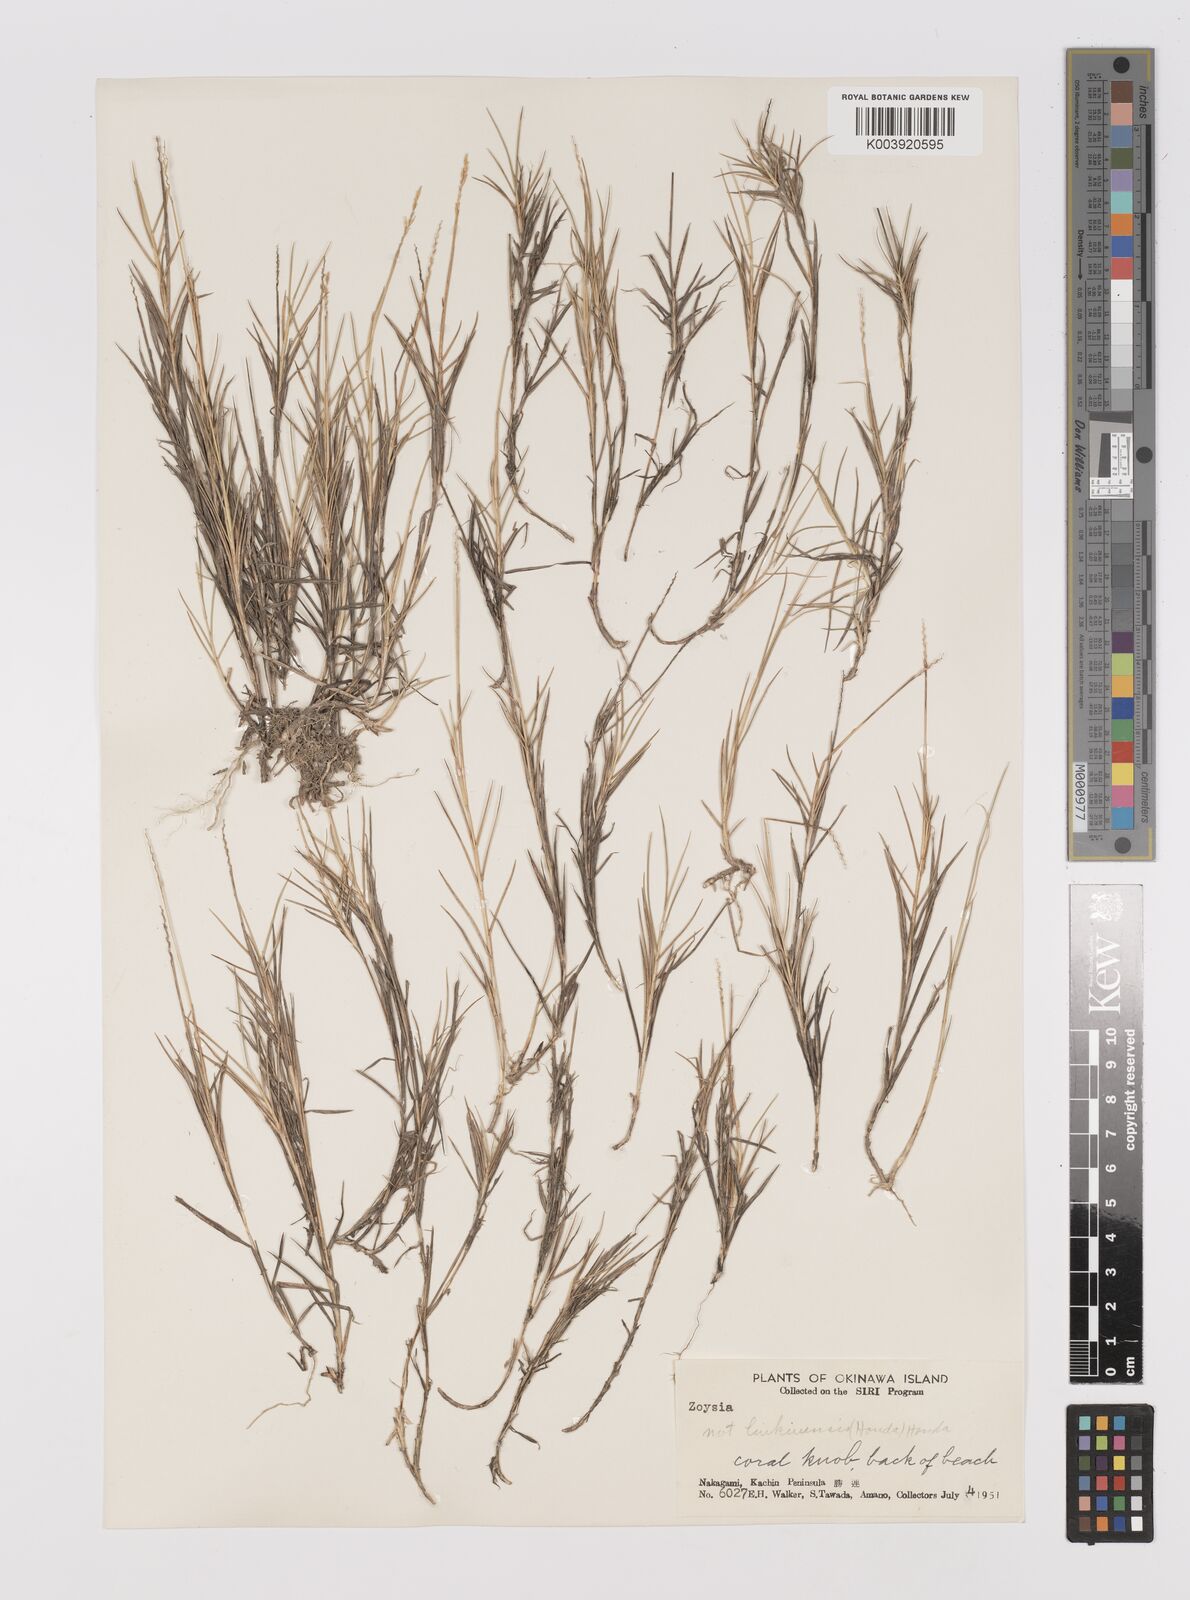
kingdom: Plantae
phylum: Tracheophyta
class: Liliopsida
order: Poales
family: Poaceae
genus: Zoysia
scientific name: Zoysia matrella
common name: Manila grass
